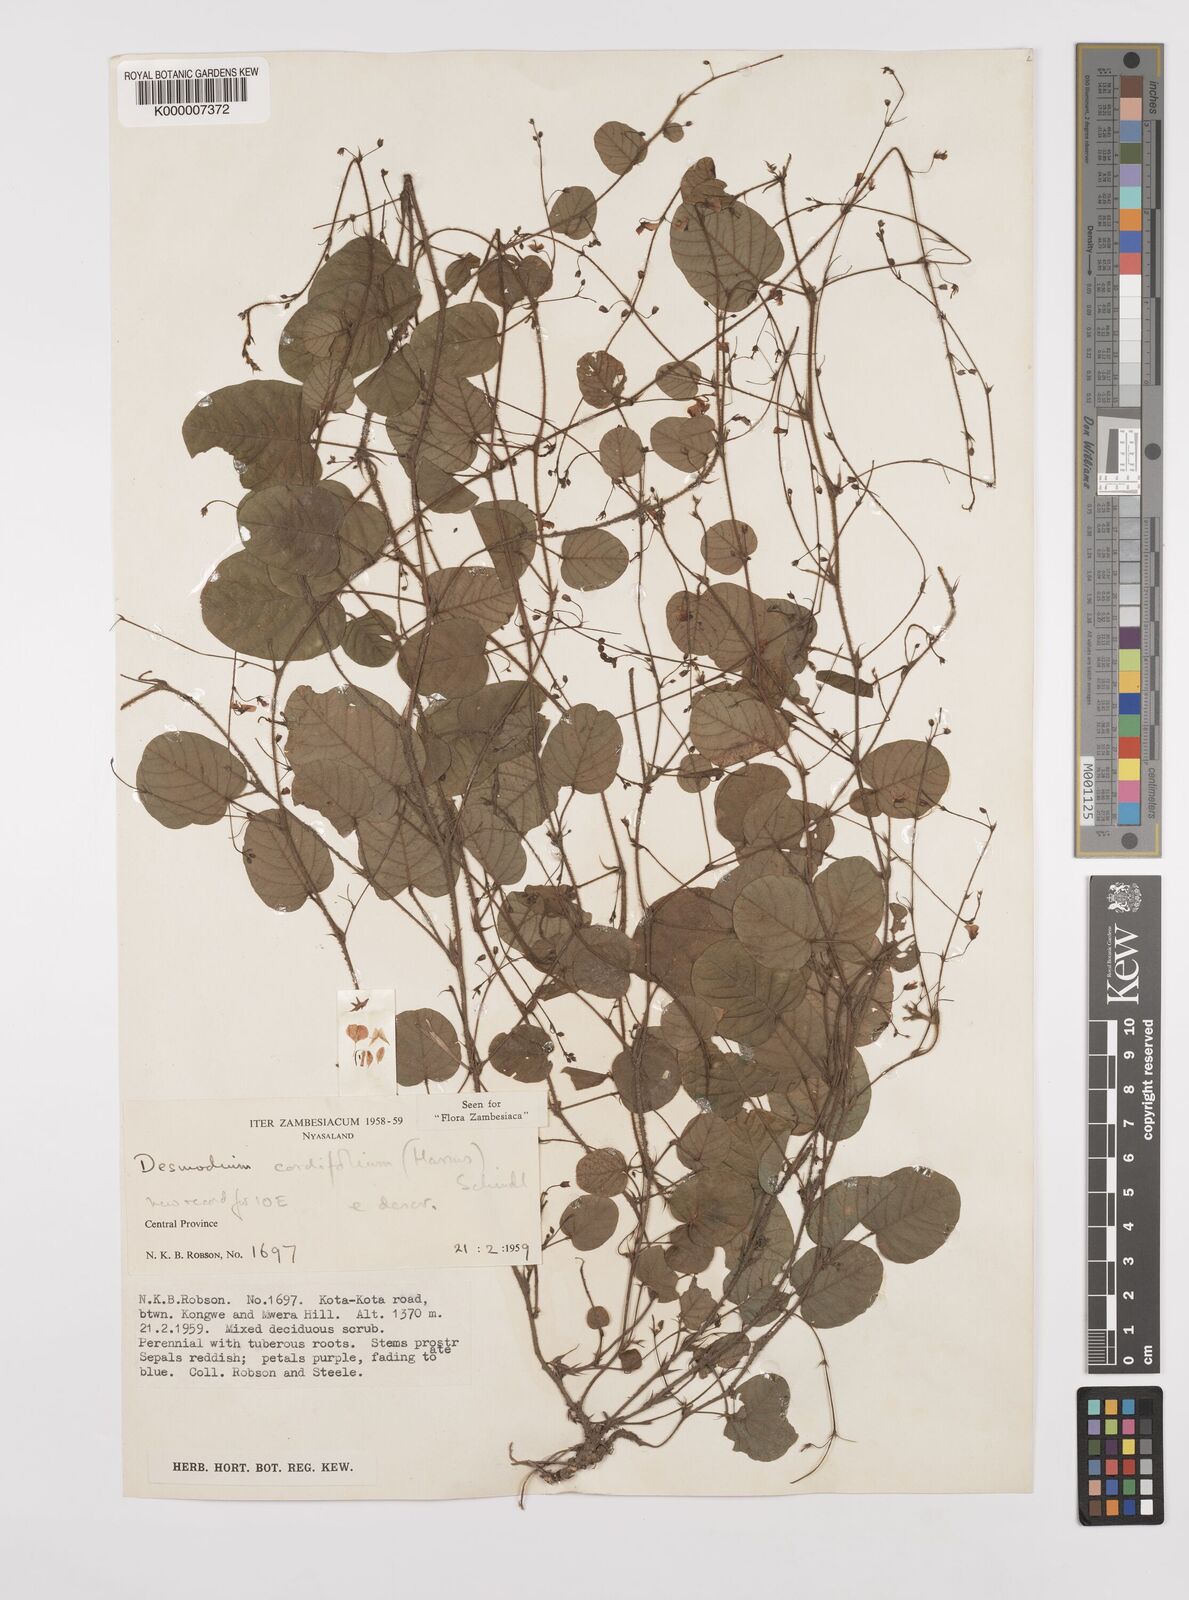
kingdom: Plantae
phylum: Tracheophyta
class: Magnoliopsida
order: Fabales
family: Fabaceae
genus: Grona
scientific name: Grona cordifolia
